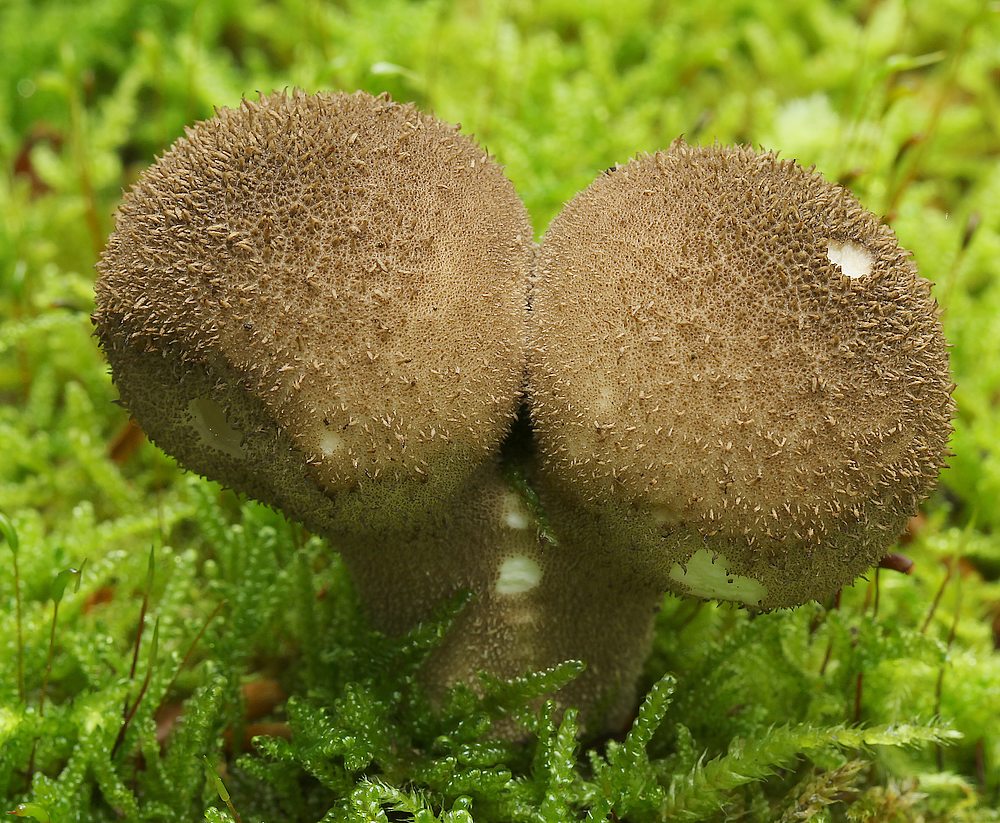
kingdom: Fungi
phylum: Basidiomycota
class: Agaricomycetes
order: Agaricales
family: Lycoperdaceae
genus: Lycoperdon
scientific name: Lycoperdon nigrescens
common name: sortagtig støvbold
